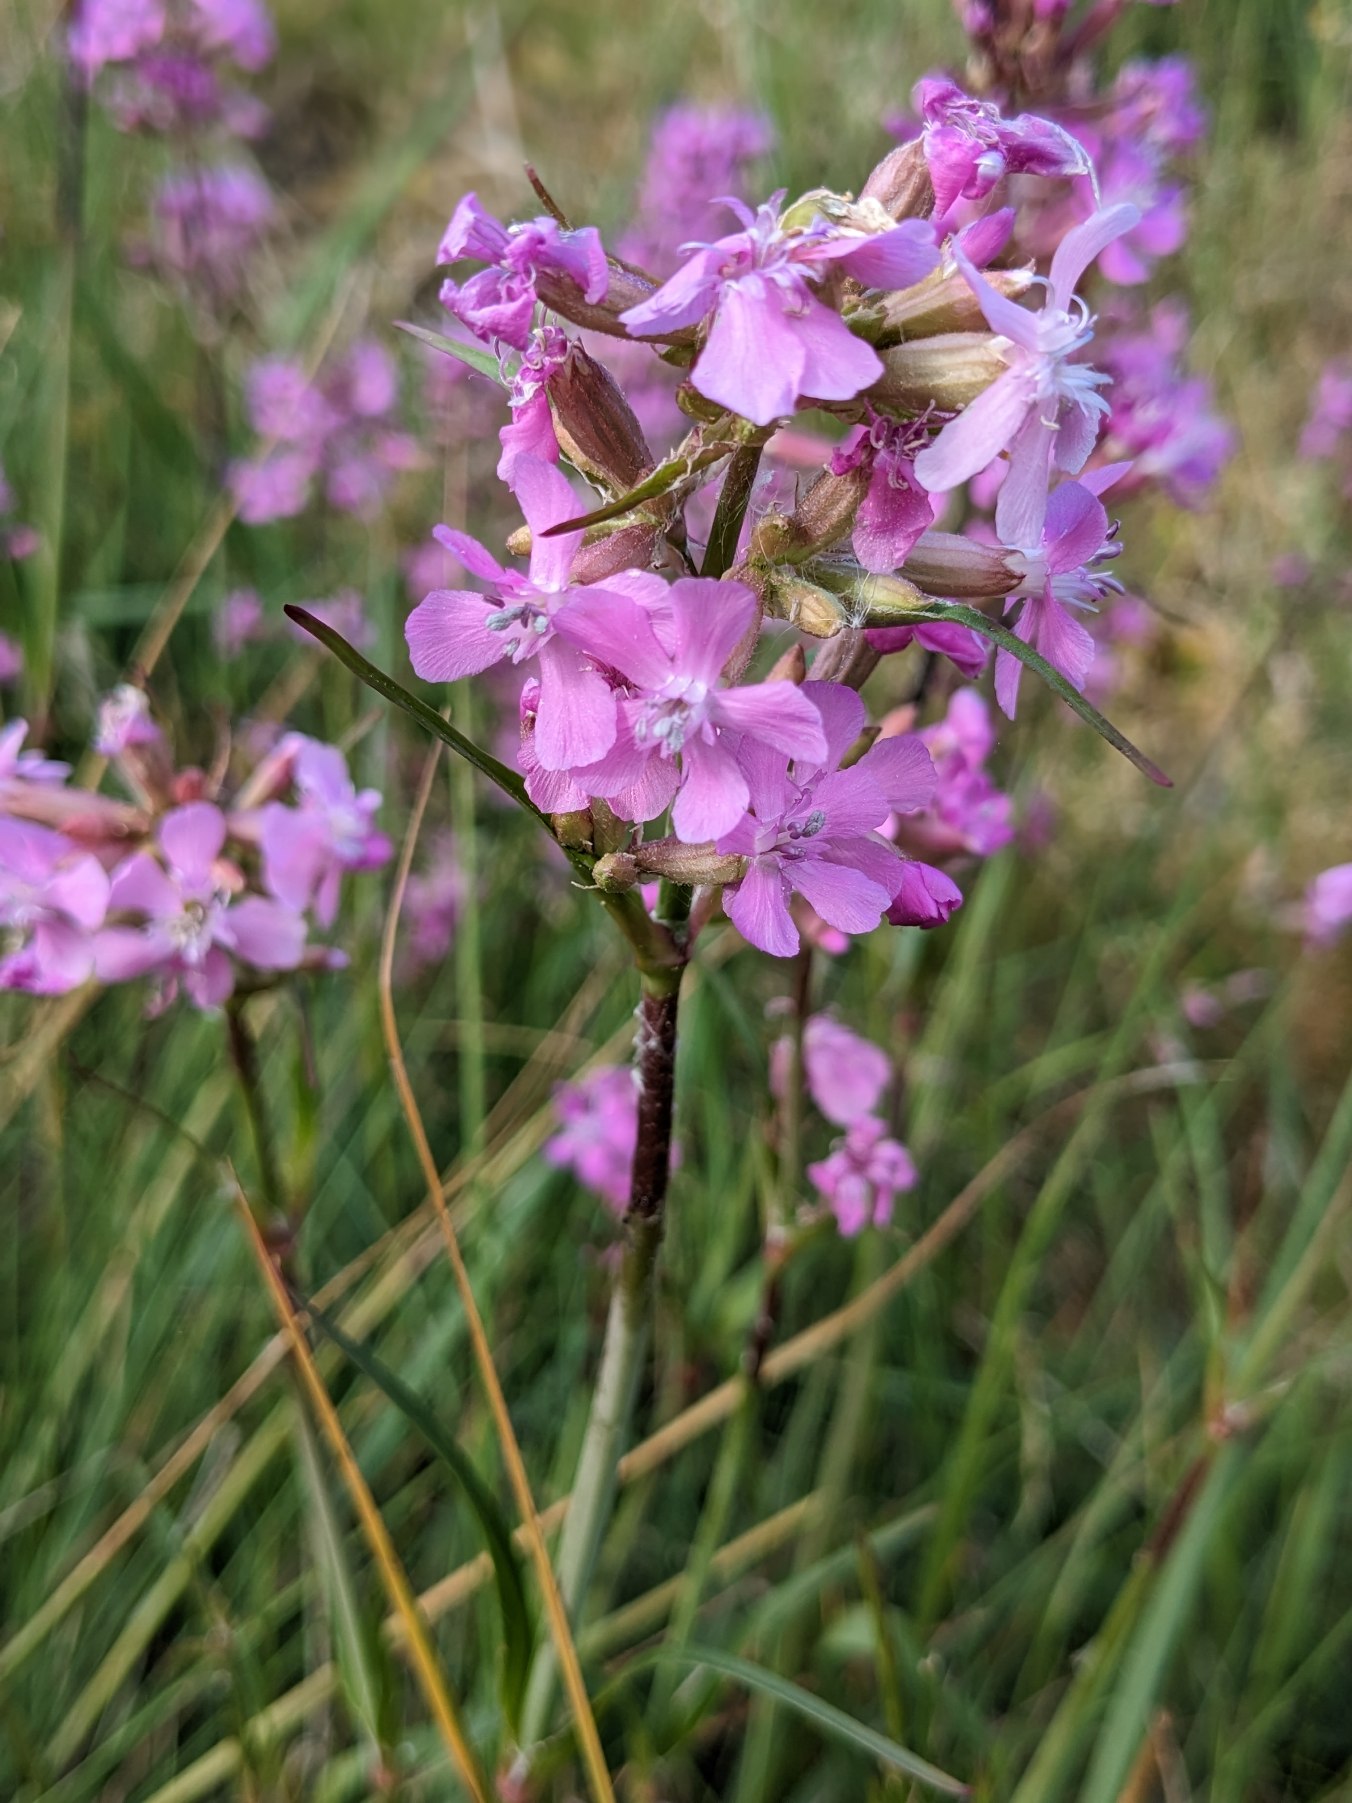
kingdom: Plantae
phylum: Tracheophyta
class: Magnoliopsida
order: Caryophyllales
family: Caryophyllaceae
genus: Viscaria
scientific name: Viscaria vulgaris
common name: Tjærenellike
